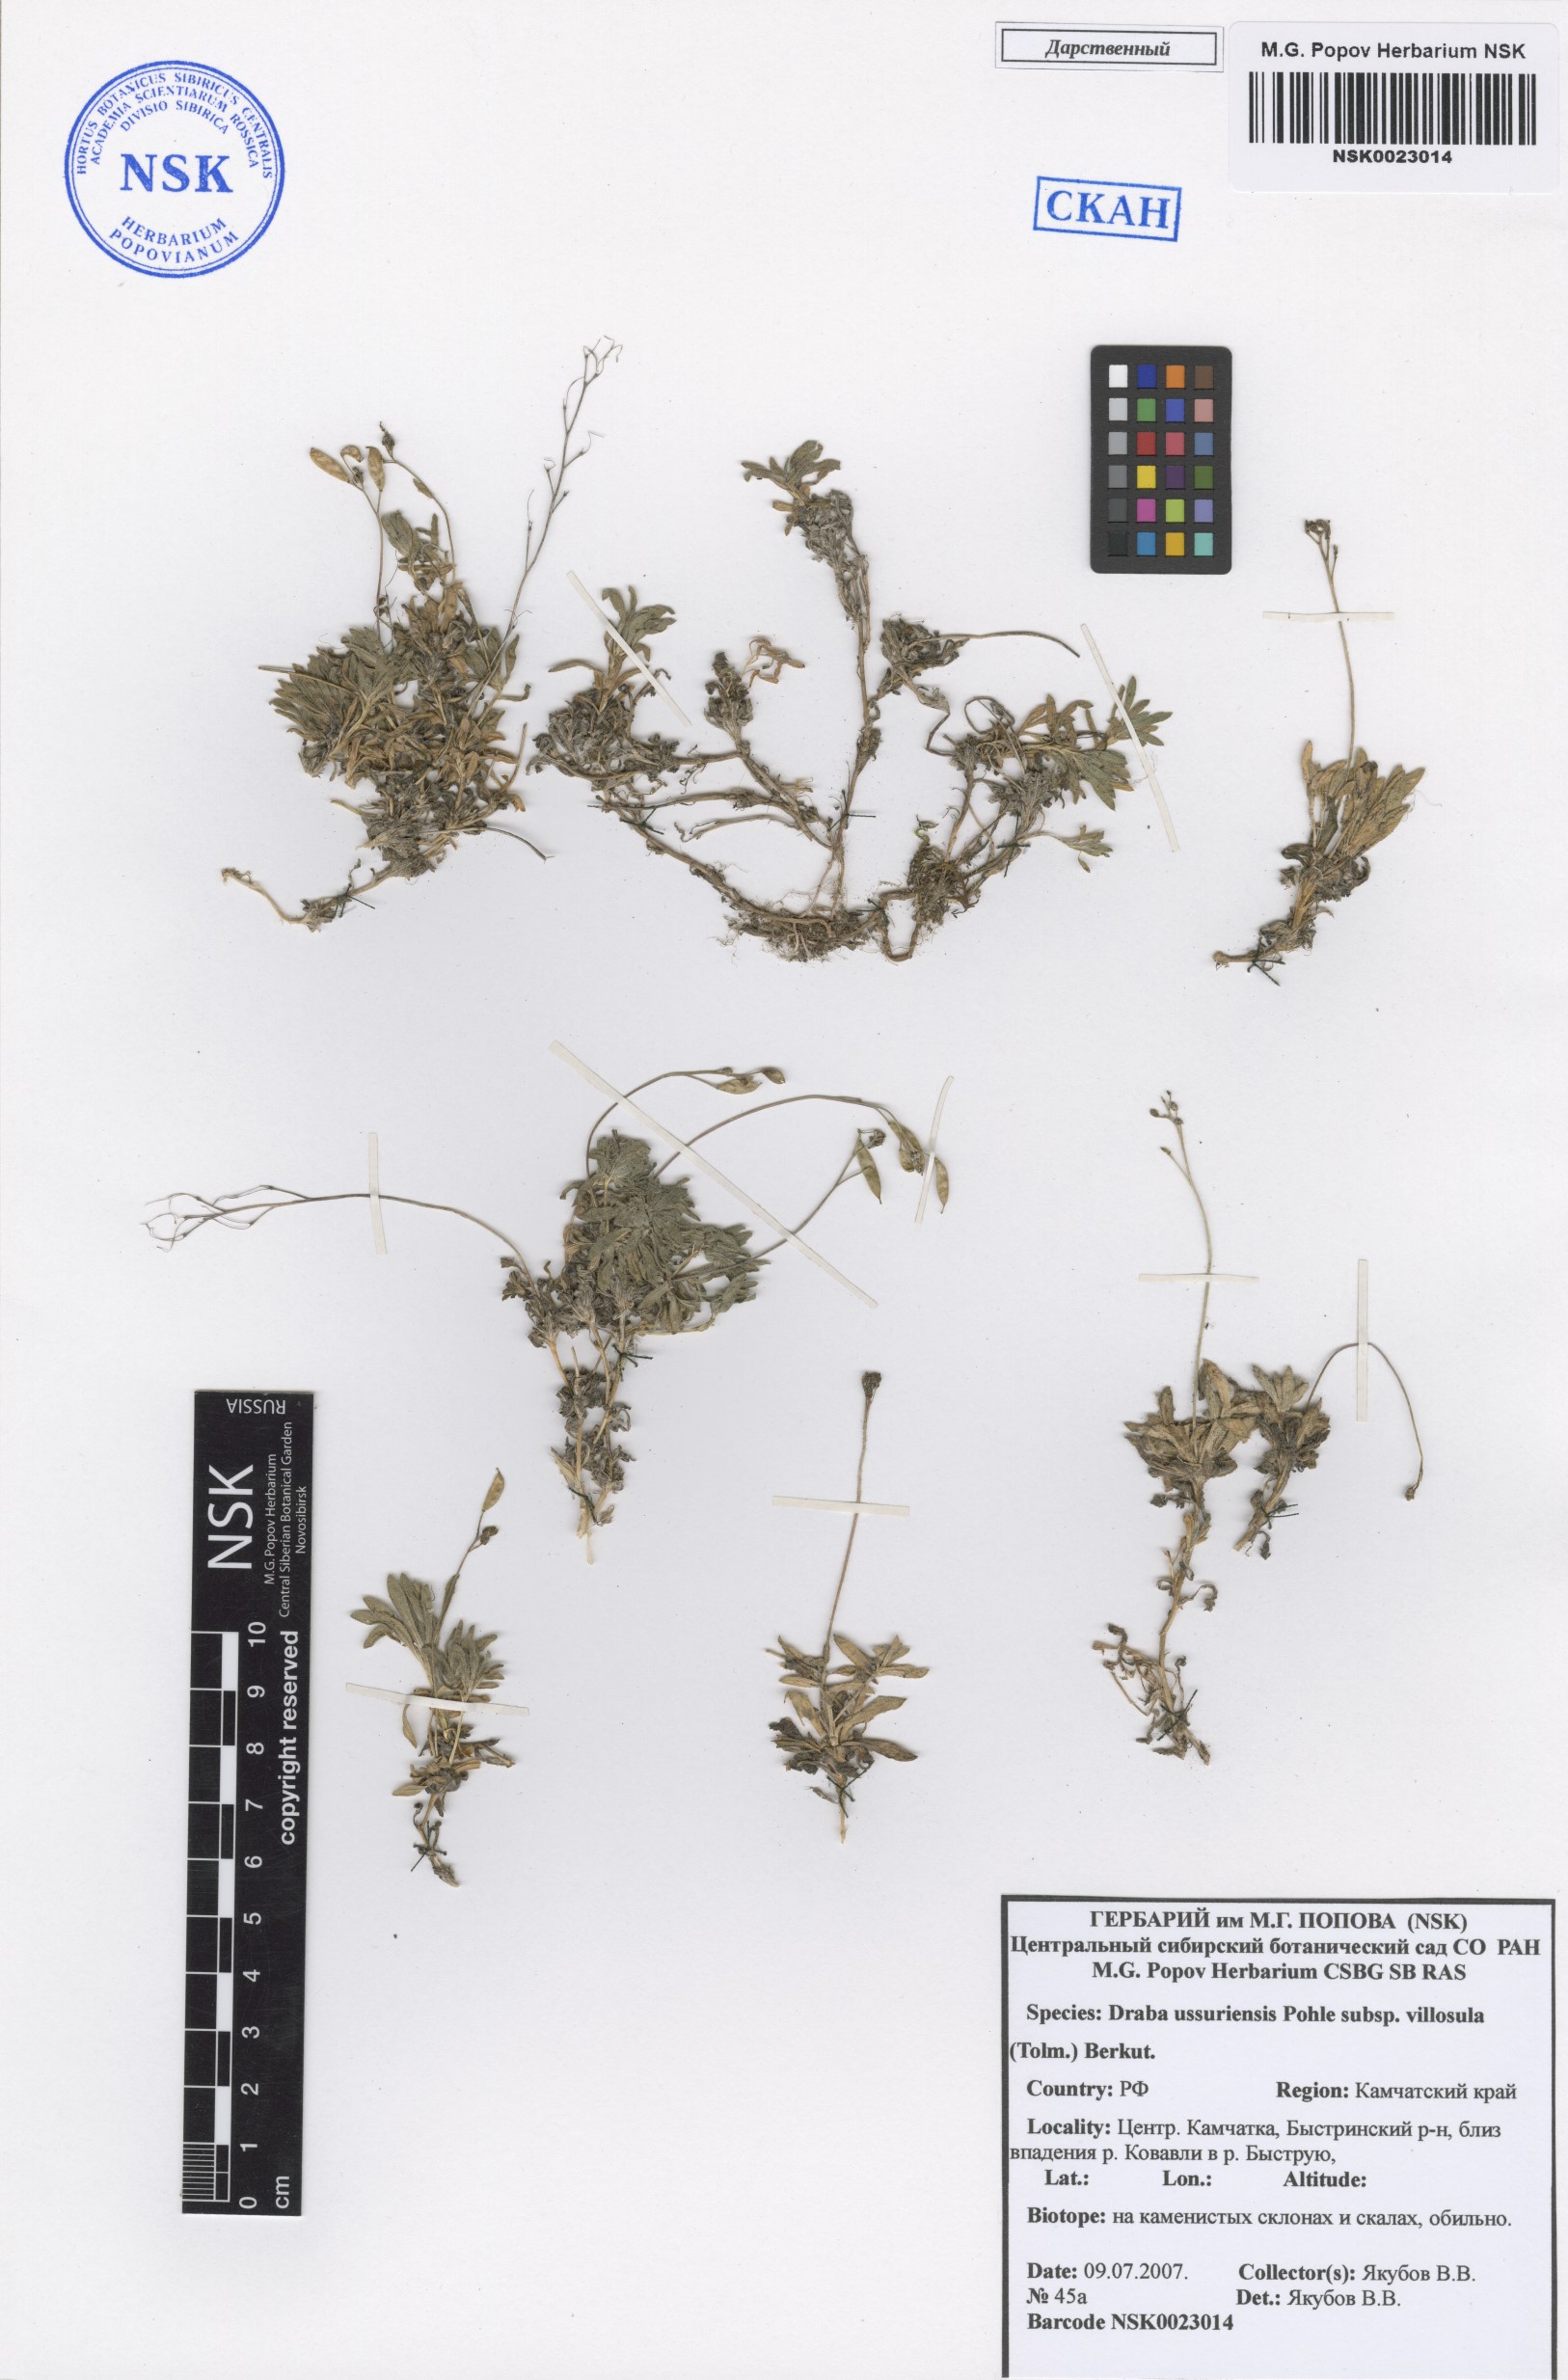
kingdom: Plantae
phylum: Tracheophyta
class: Magnoliopsida
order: Brassicales
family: Brassicaceae
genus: Draba
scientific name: Draba ussuriensis
